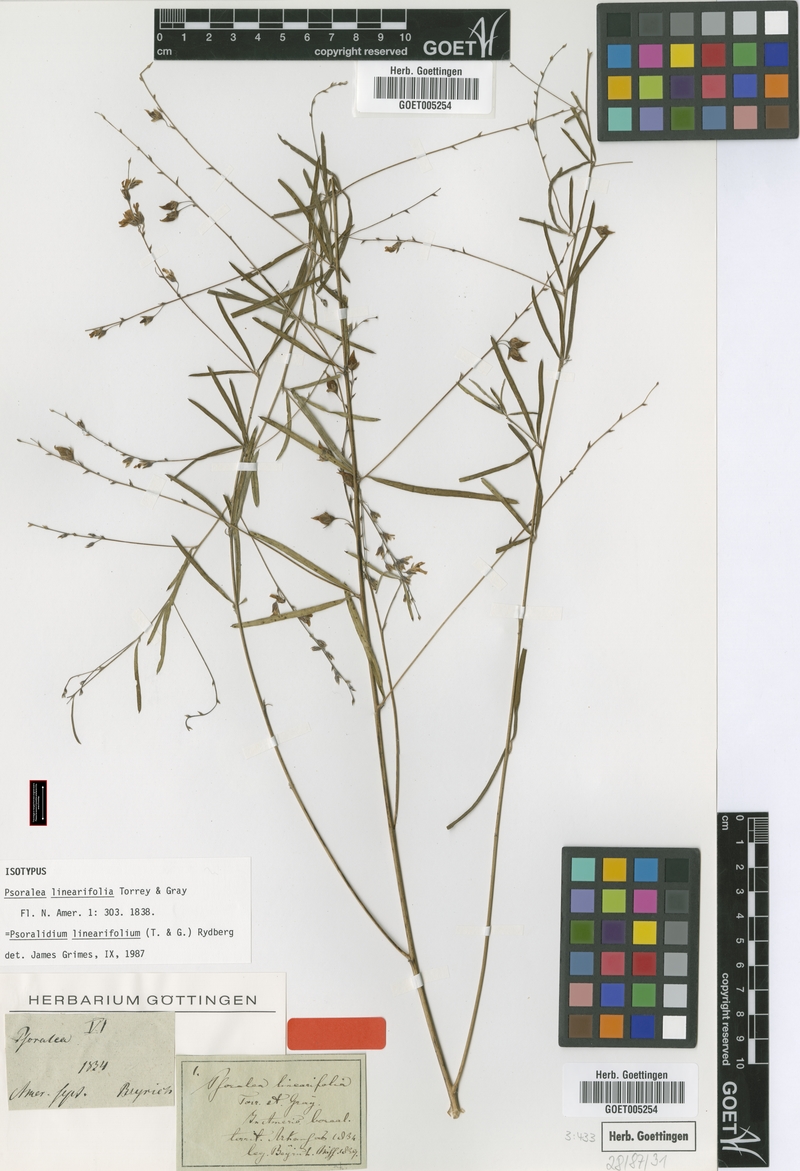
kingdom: Plantae
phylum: Tracheophyta
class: Magnoliopsida
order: Fabales
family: Fabaceae
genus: Pediomelum
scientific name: Pediomelum linearifolium
